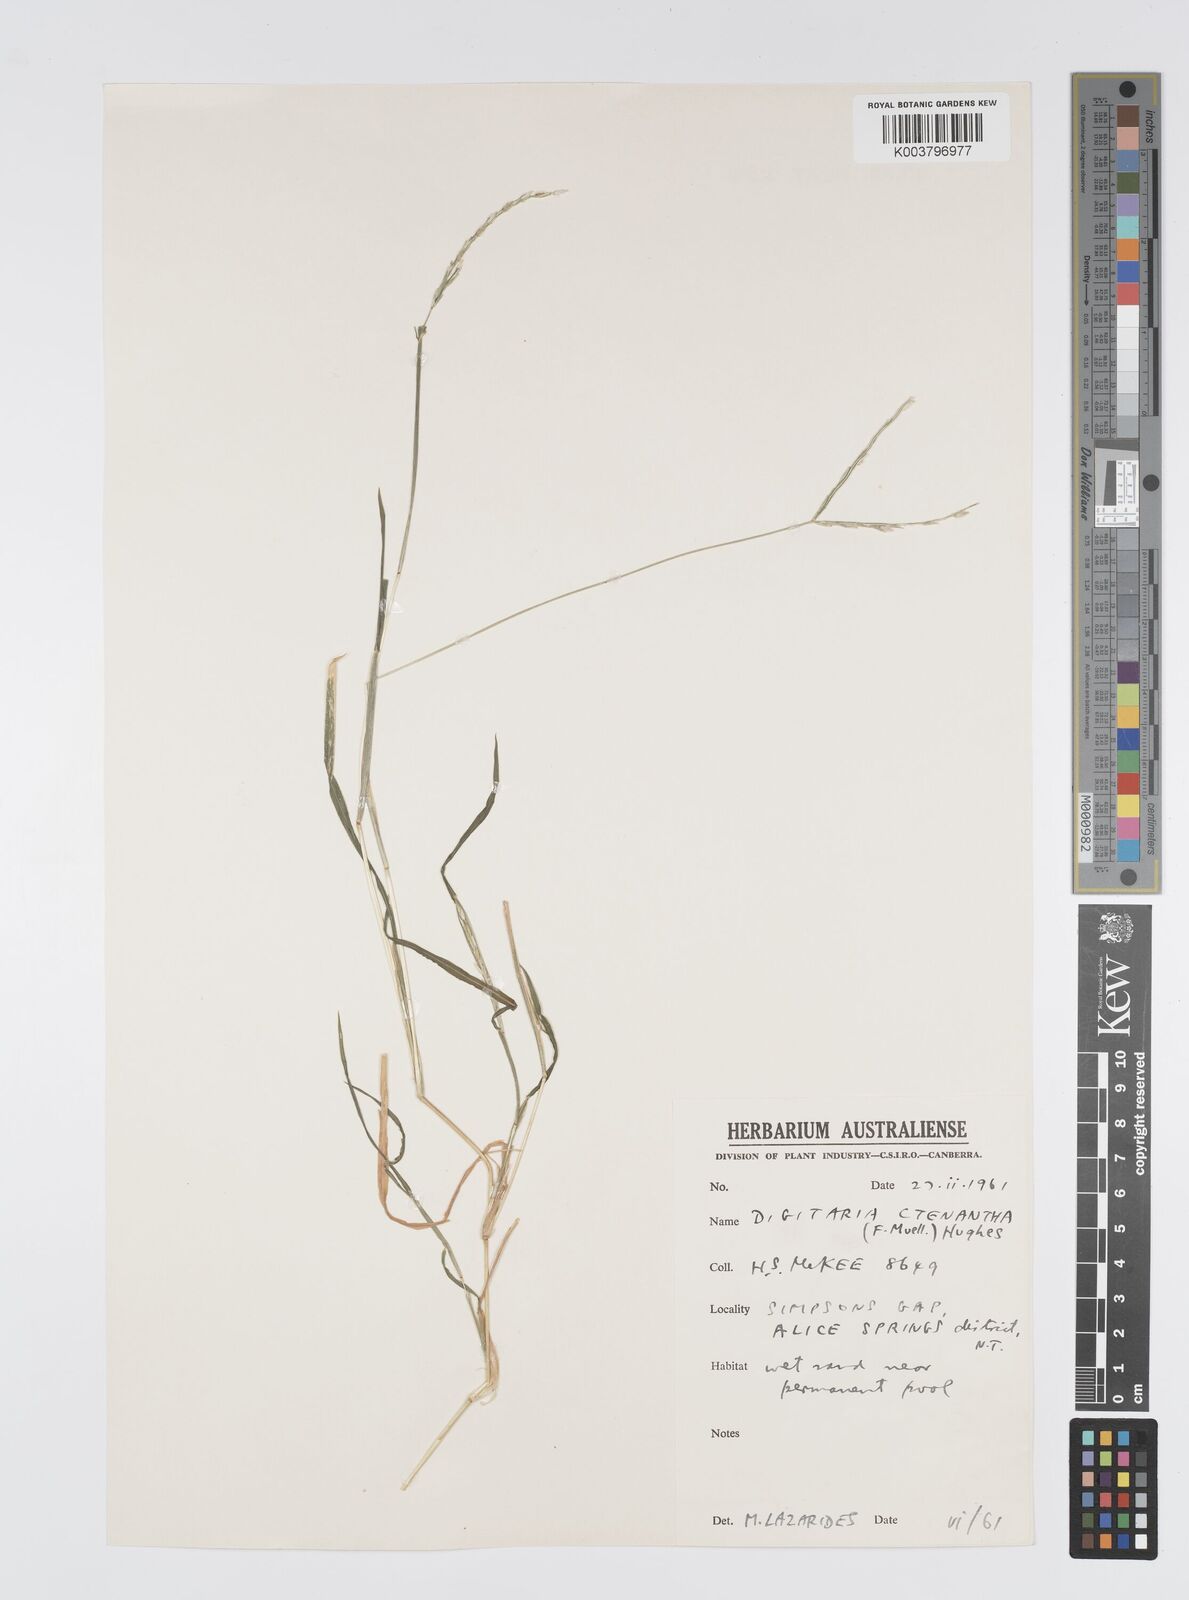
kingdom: Plantae
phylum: Tracheophyta
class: Liliopsida
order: Poales
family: Poaceae
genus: Digitaria
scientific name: Digitaria ctenantha
